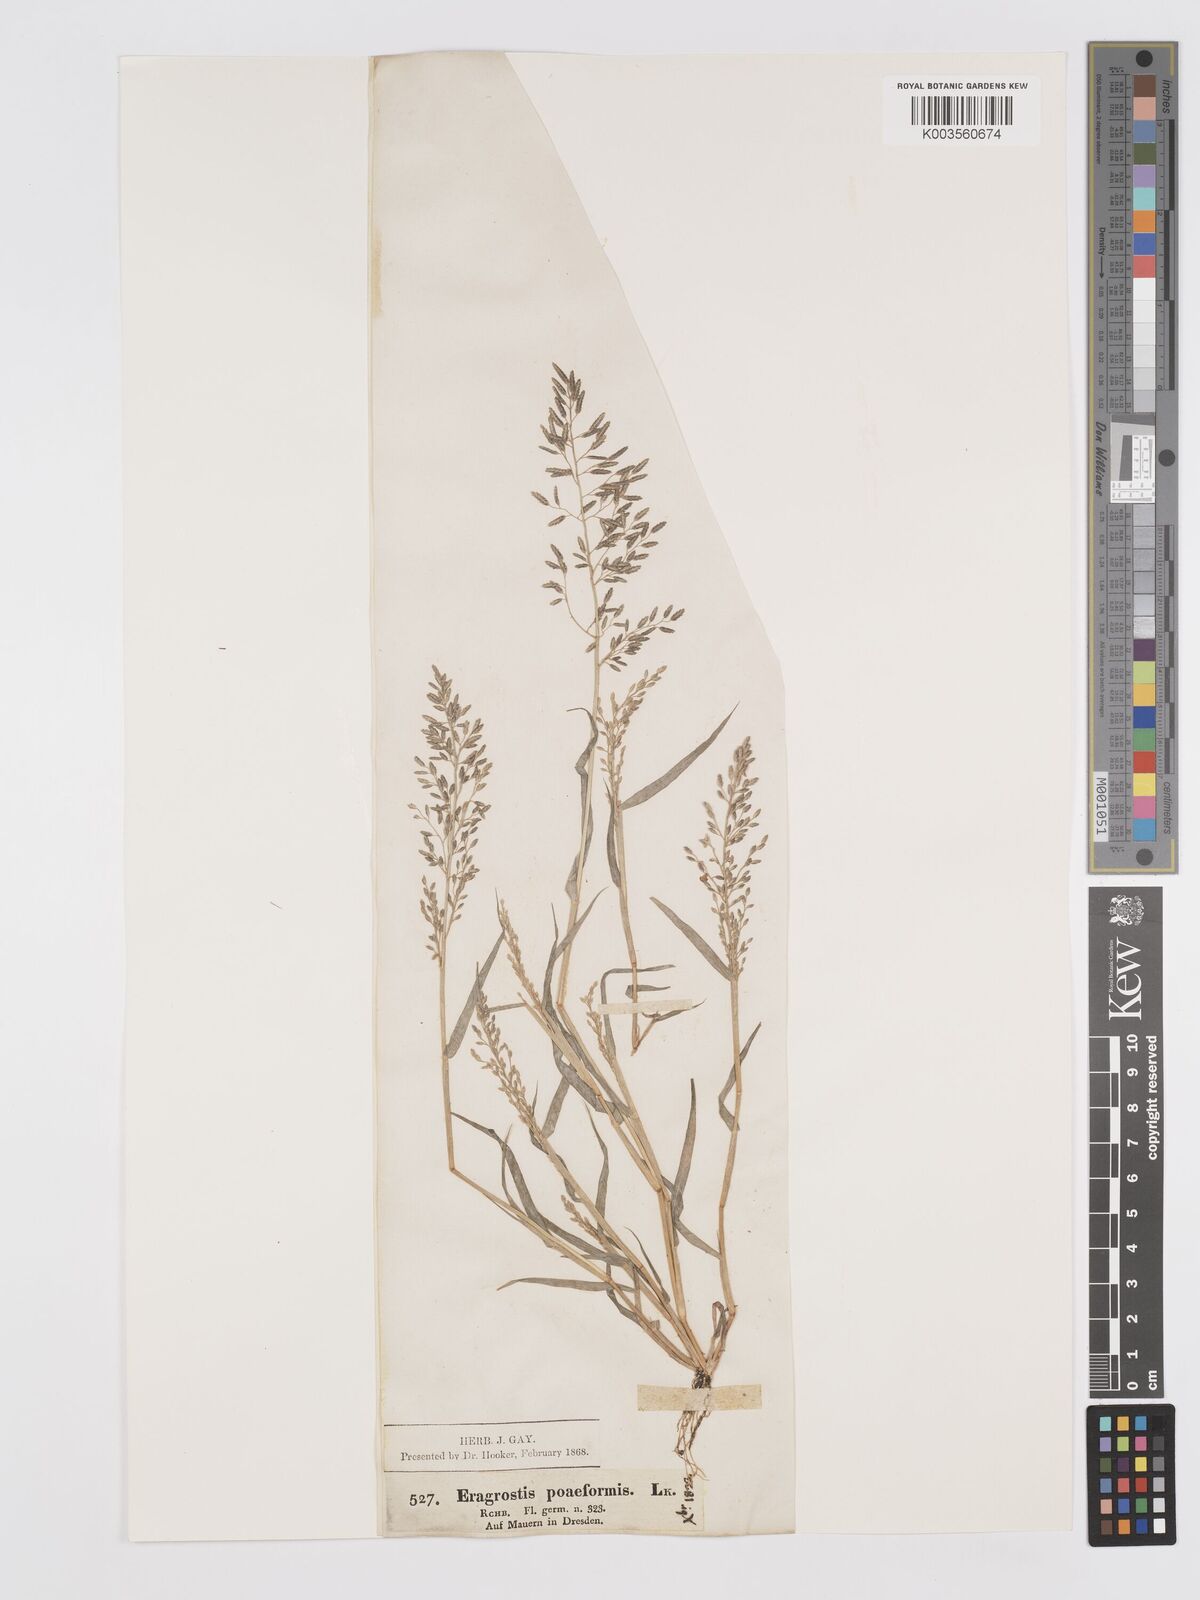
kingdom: Plantae
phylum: Tracheophyta
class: Liliopsida
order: Poales
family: Poaceae
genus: Eragrostis
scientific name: Eragrostis minor
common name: Small love-grass
